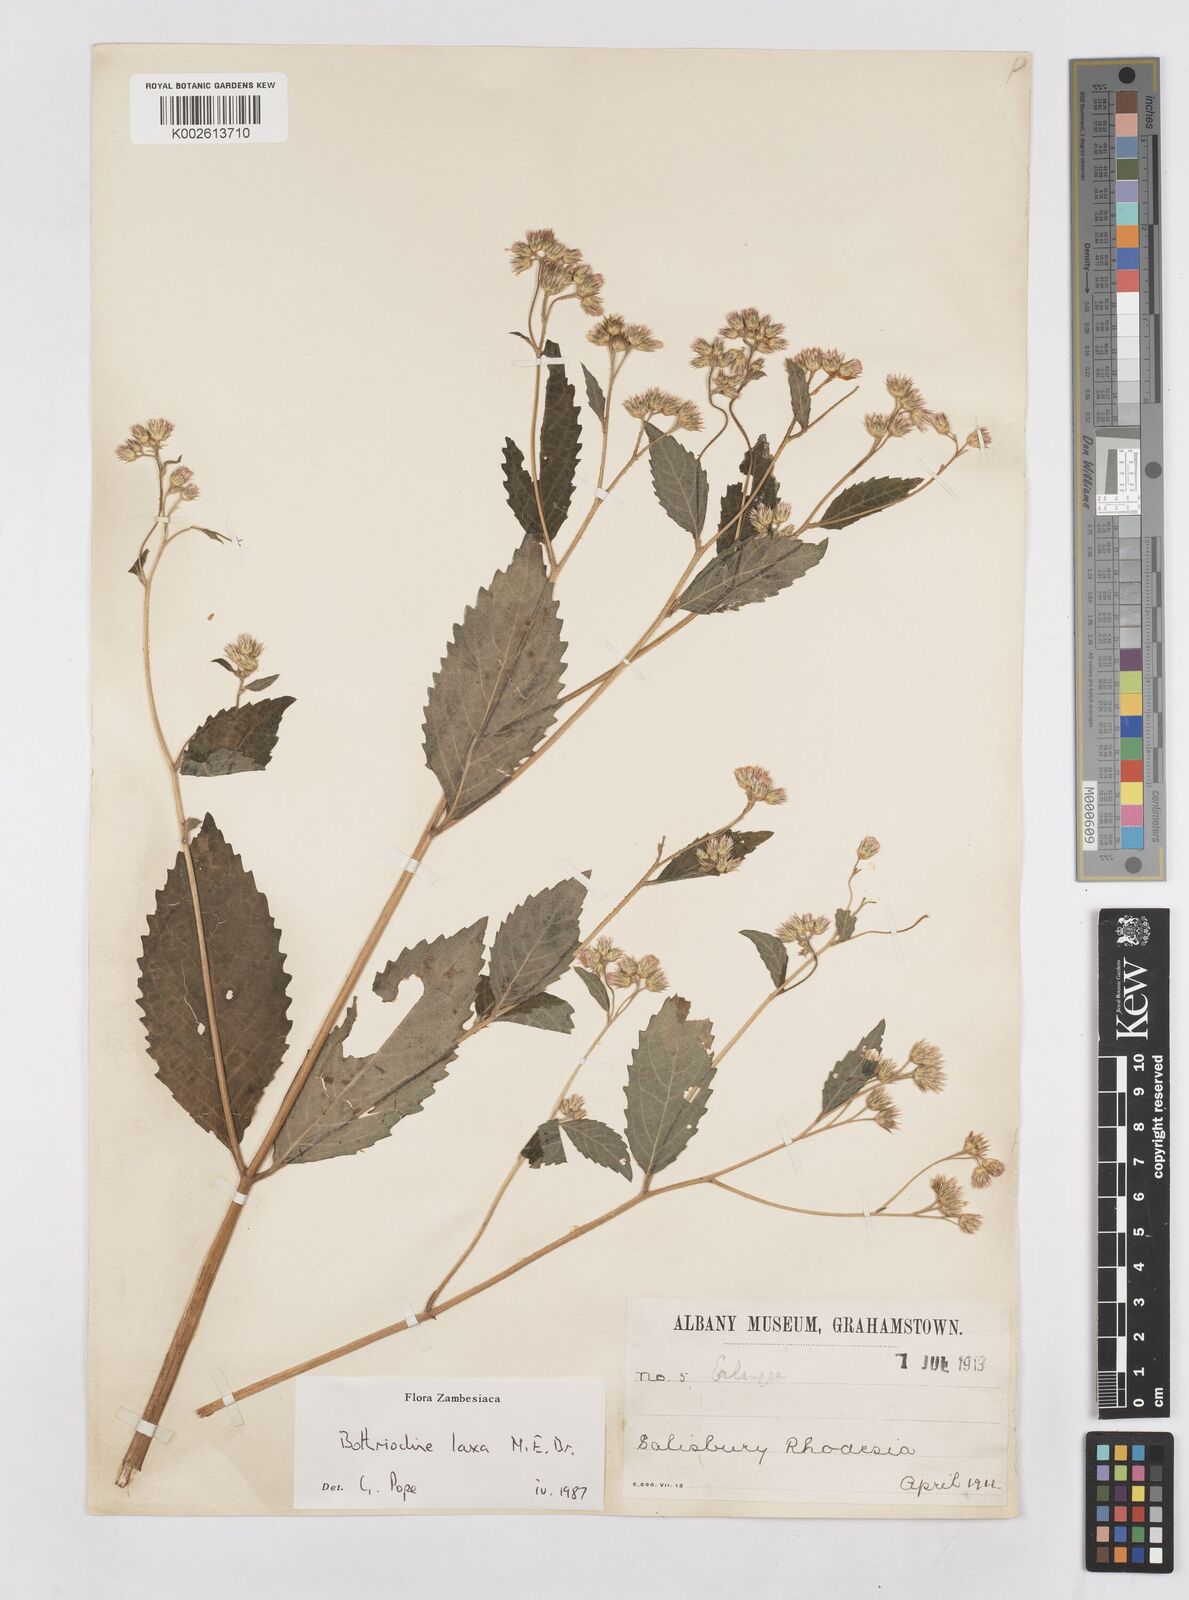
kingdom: Plantae
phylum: Tracheophyta
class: Magnoliopsida
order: Asterales
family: Asteraceae
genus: Bothriocline
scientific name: Bothriocline laxa
